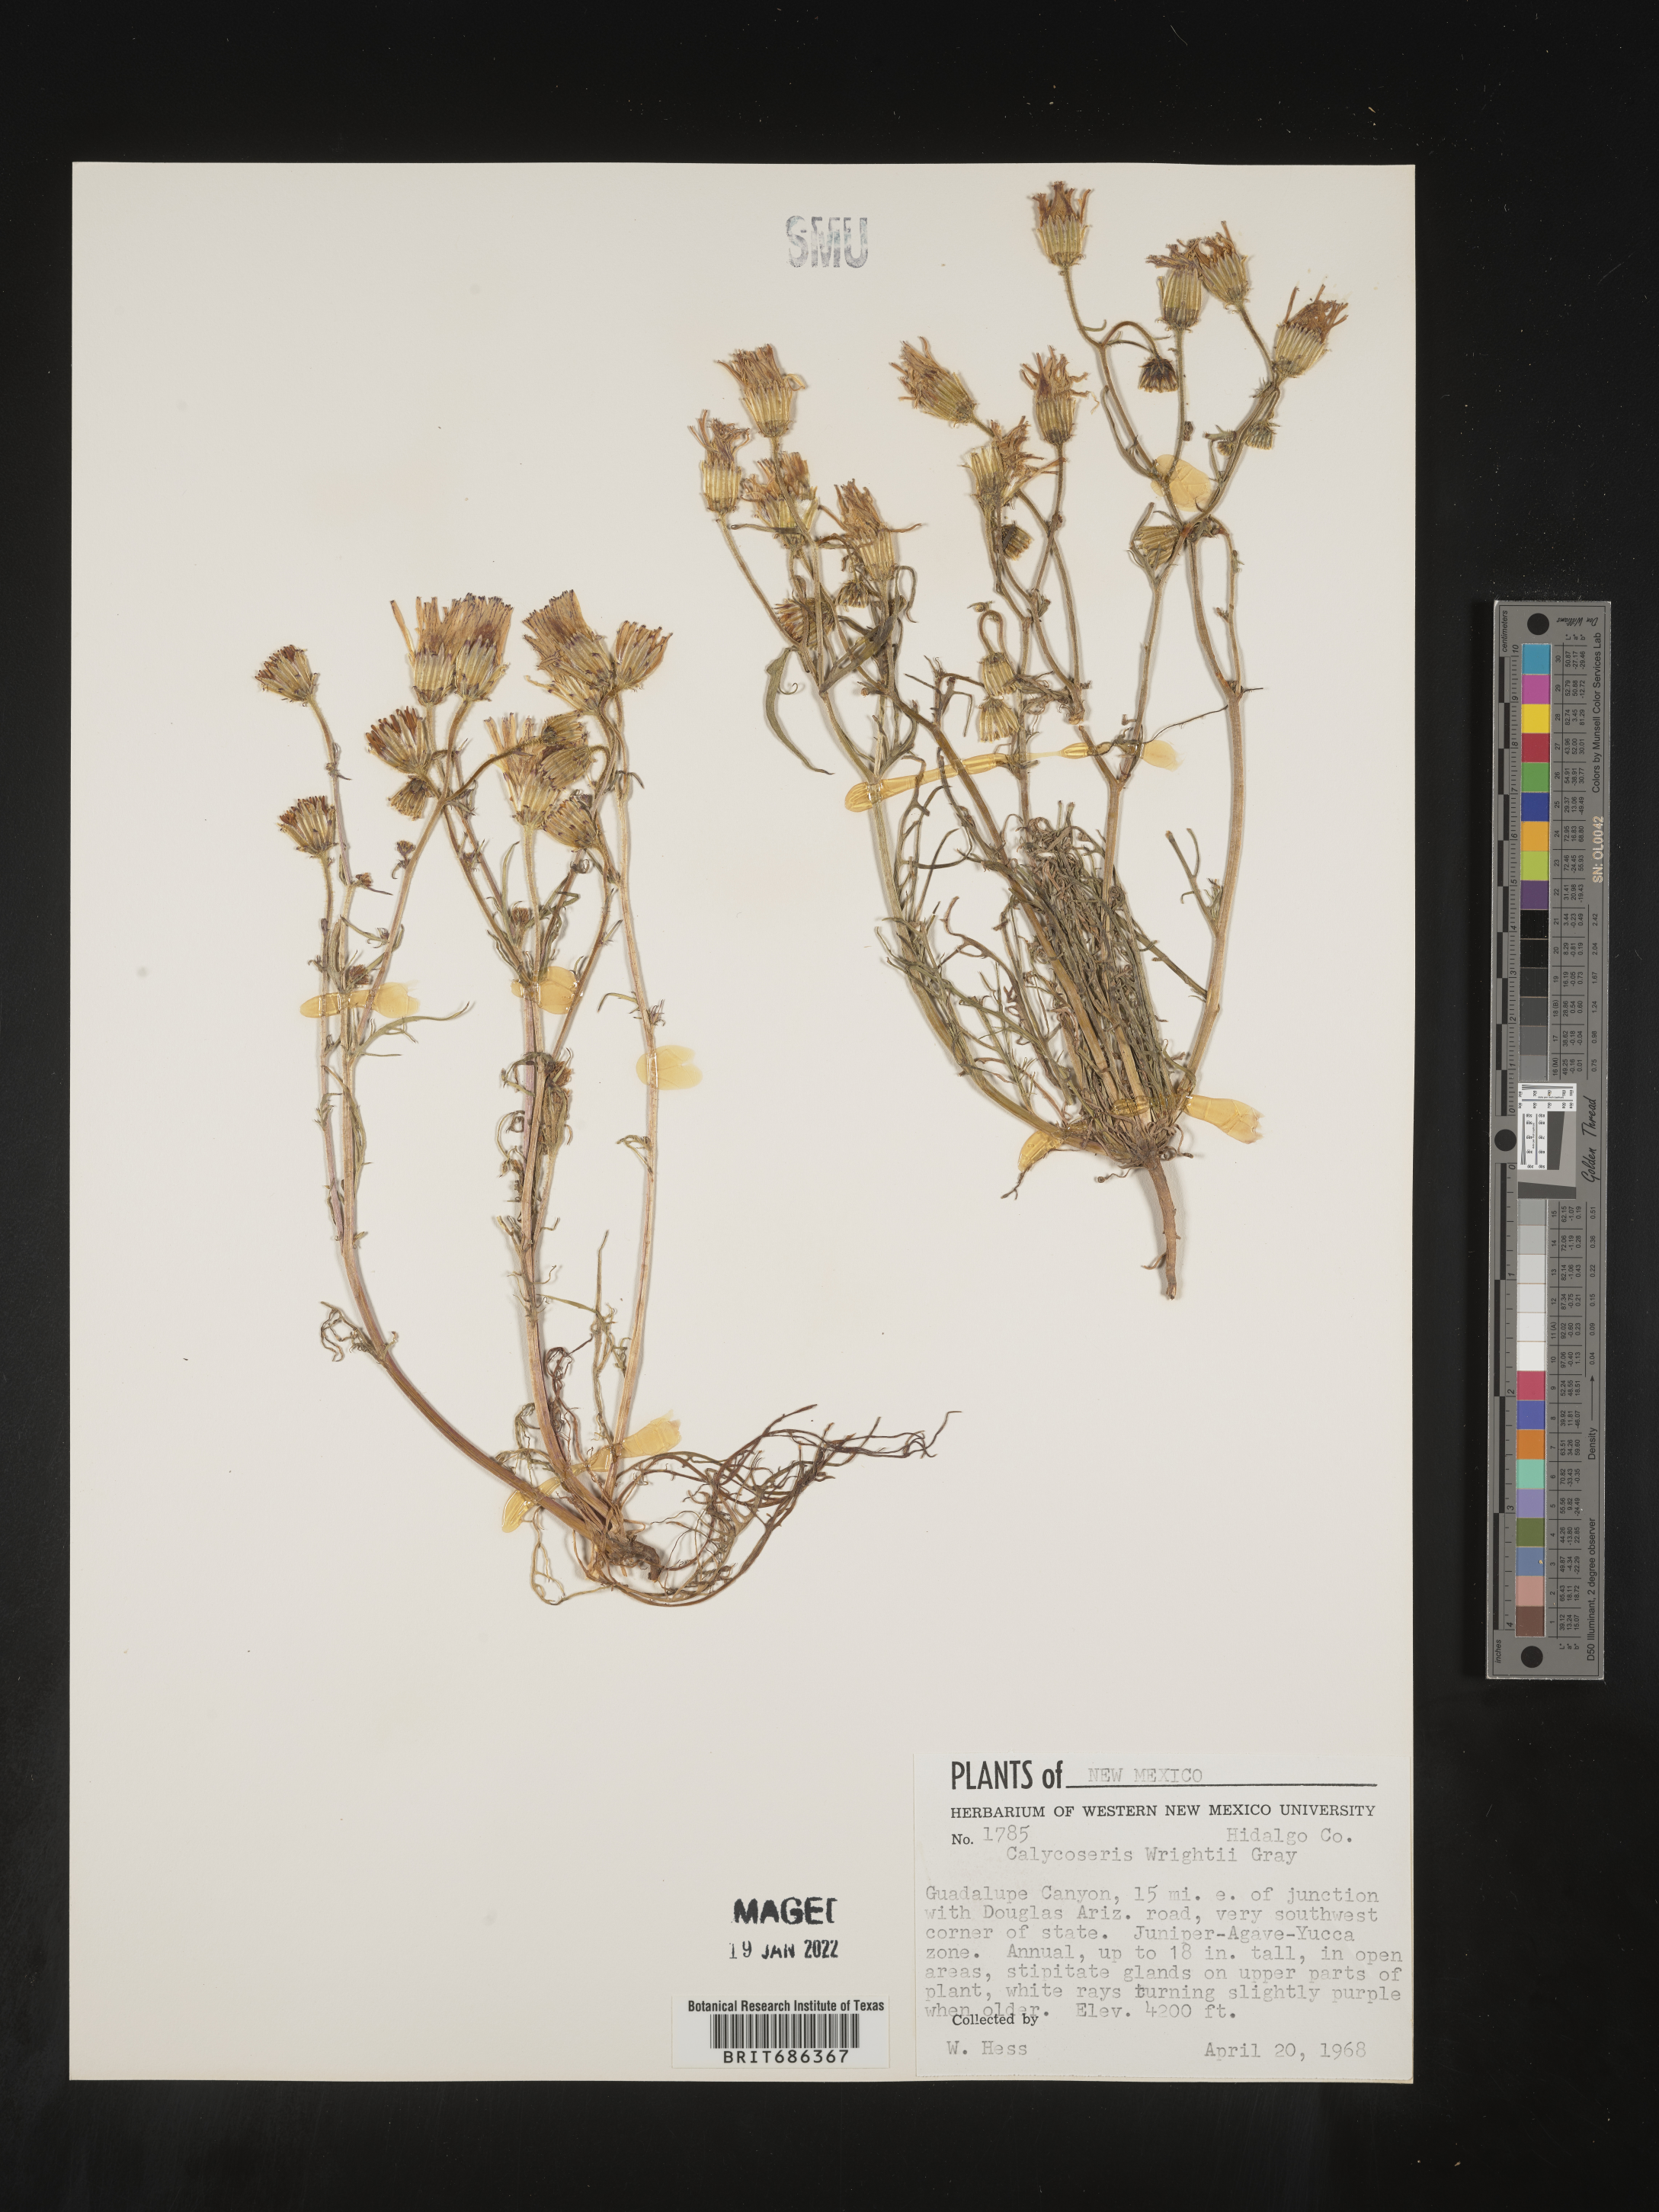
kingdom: Plantae
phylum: Tracheophyta
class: Magnoliopsida
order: Asterales
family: Asteraceae
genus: Calycoseris
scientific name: Calycoseris
